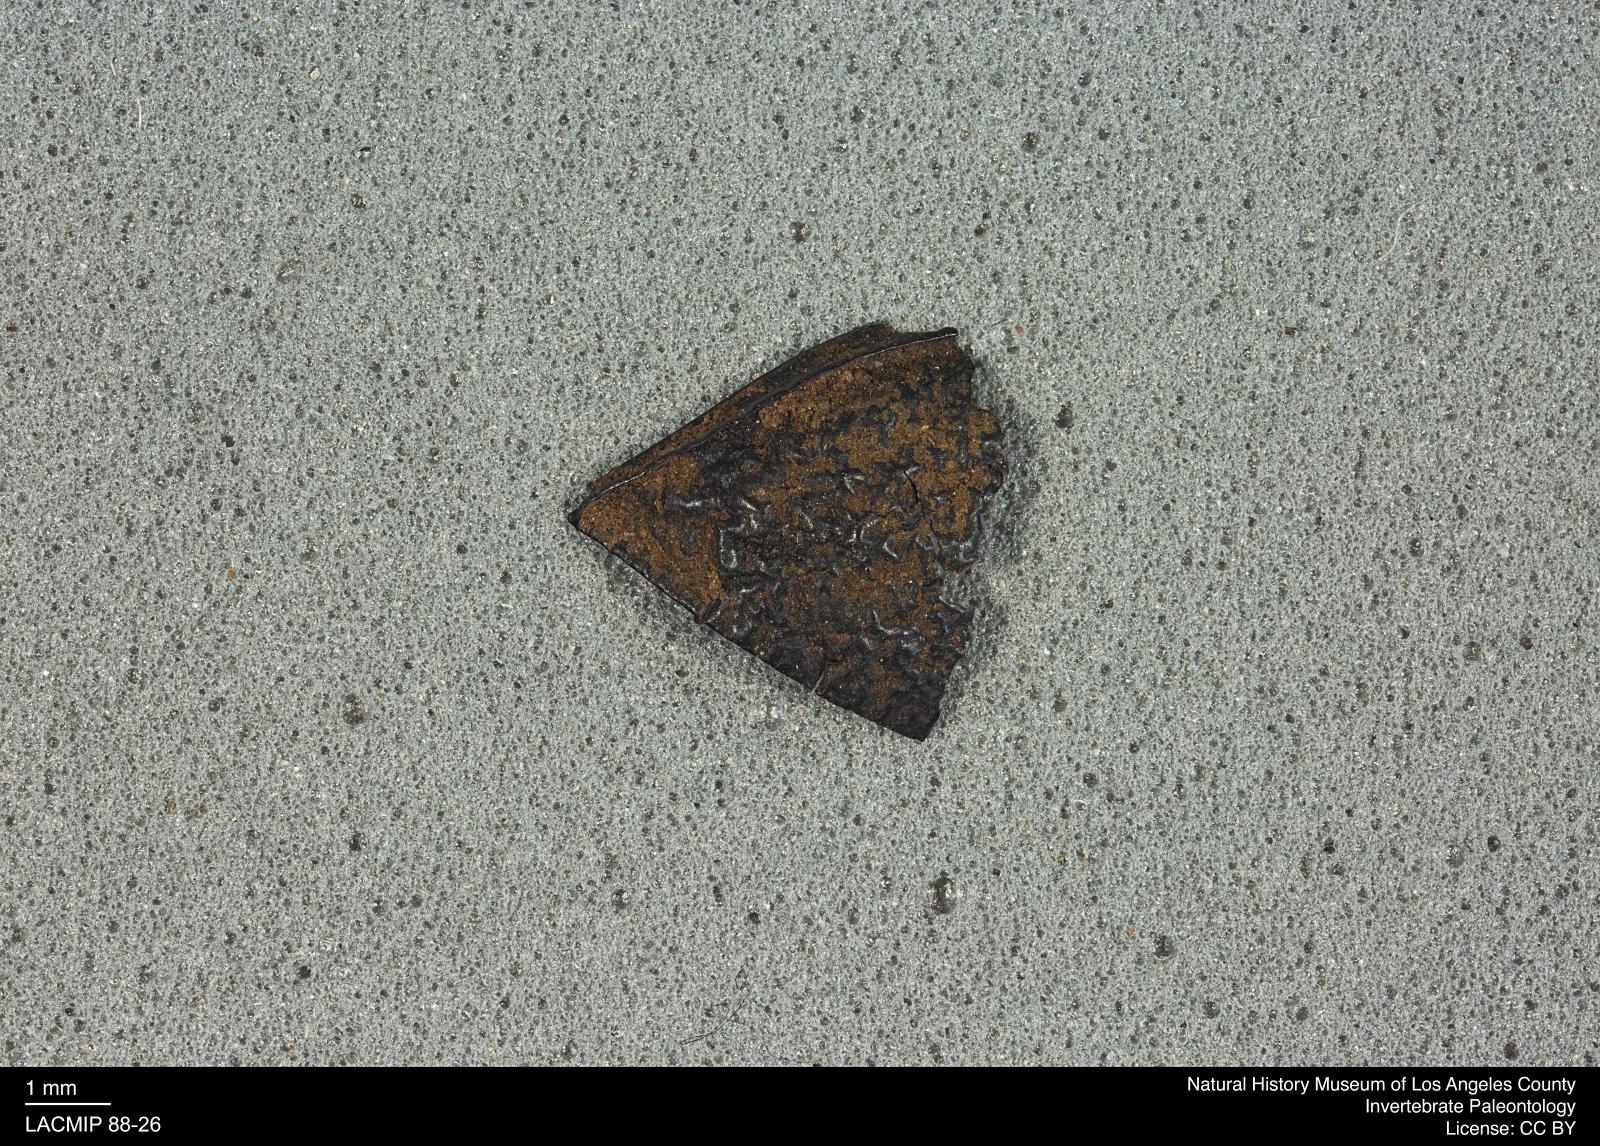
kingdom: Animalia
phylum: Arthropoda
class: Insecta
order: Coleoptera
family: Tenebrionidae
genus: Coniontis
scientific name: Coniontis abdominalis
